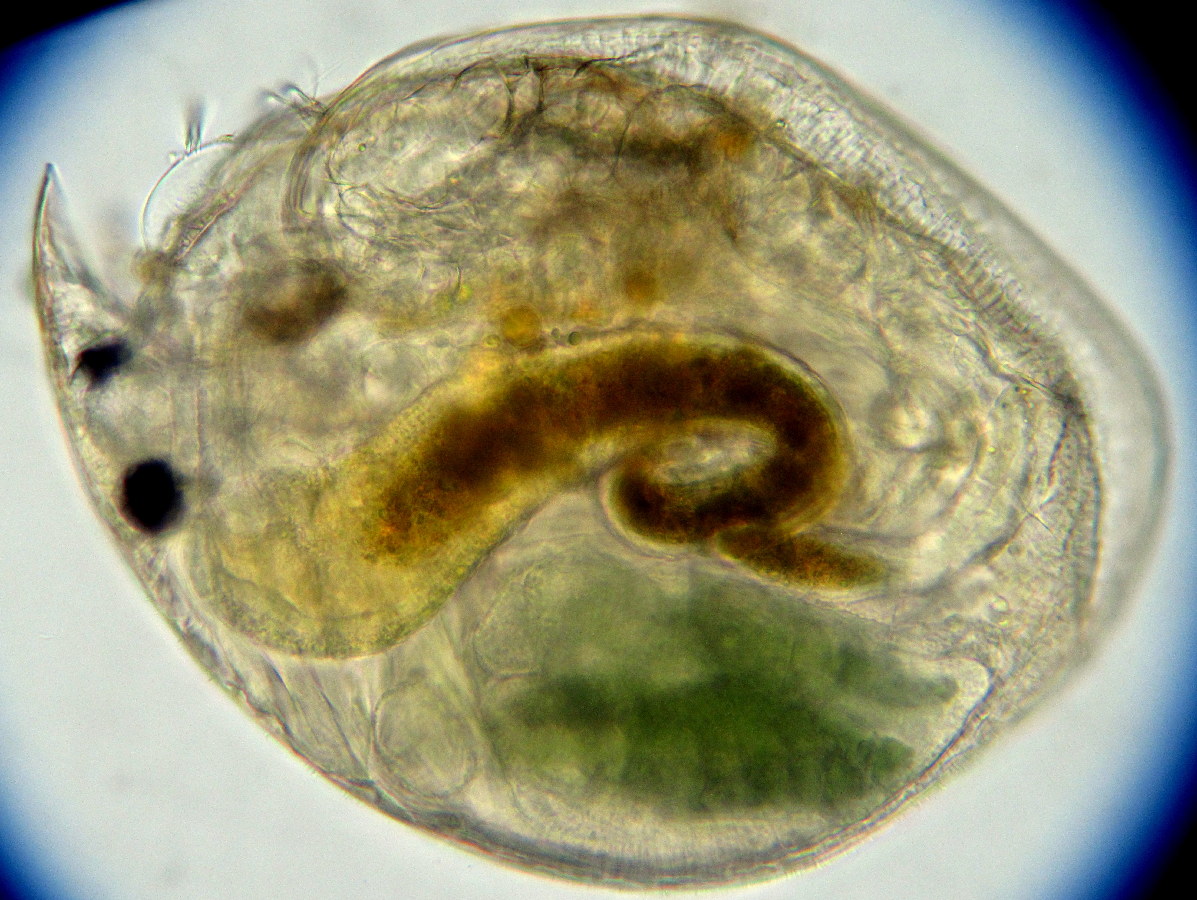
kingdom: Animalia
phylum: Arthropoda
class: Branchiopoda
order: Diplostraca
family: Chydoridae
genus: Alona
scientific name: Alona affinis
